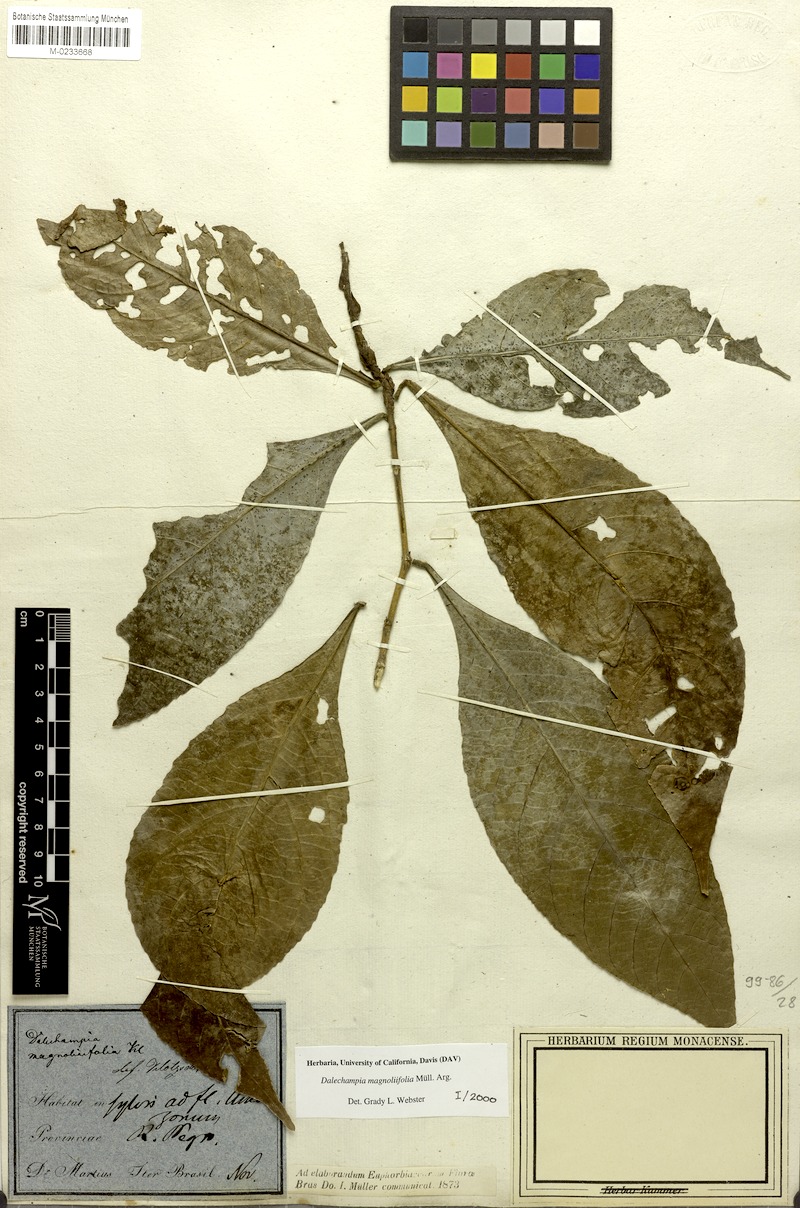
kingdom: Plantae
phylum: Tracheophyta
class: Magnoliopsida
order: Malpighiales
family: Euphorbiaceae
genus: Dalechampia
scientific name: Dalechampia magnoliifolia
